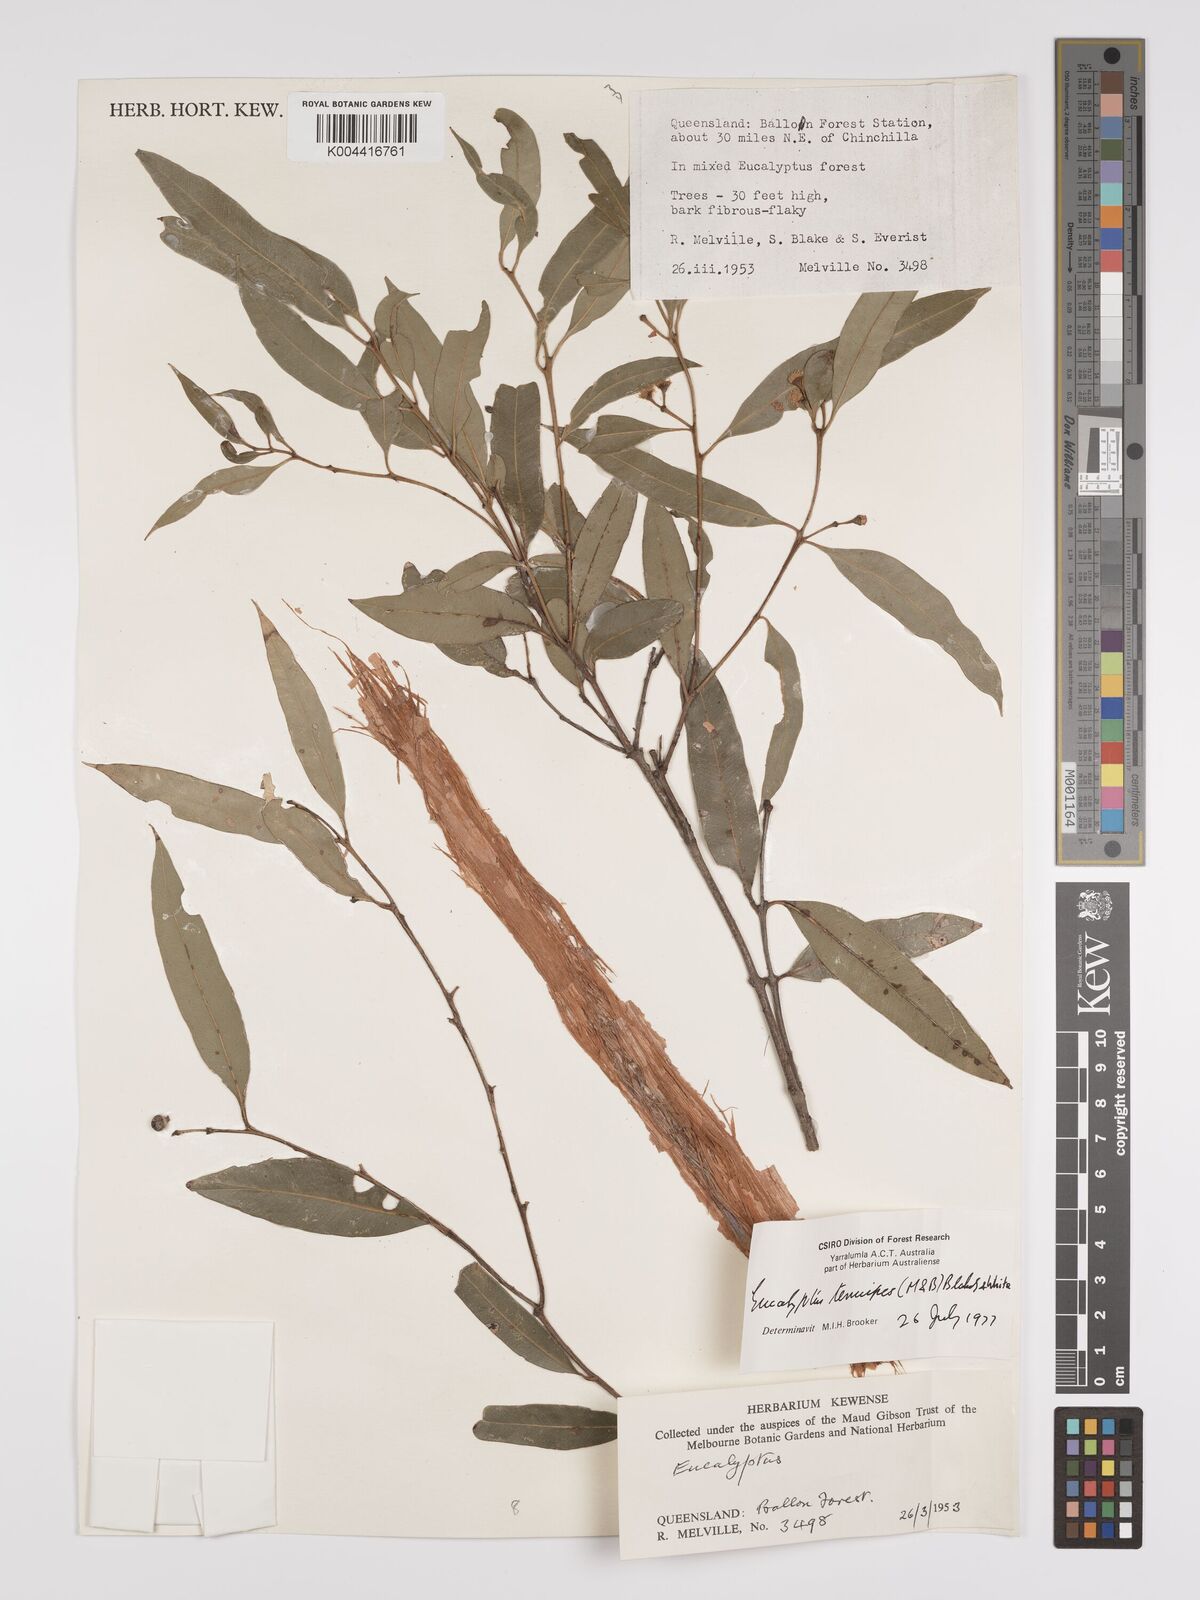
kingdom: Plantae
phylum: Tracheophyta
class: Magnoliopsida
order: Myrtales
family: Myrtaceae
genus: Eucalyptus
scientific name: Eucalyptus tenuipes
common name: Narrow-leaved white mahogany
